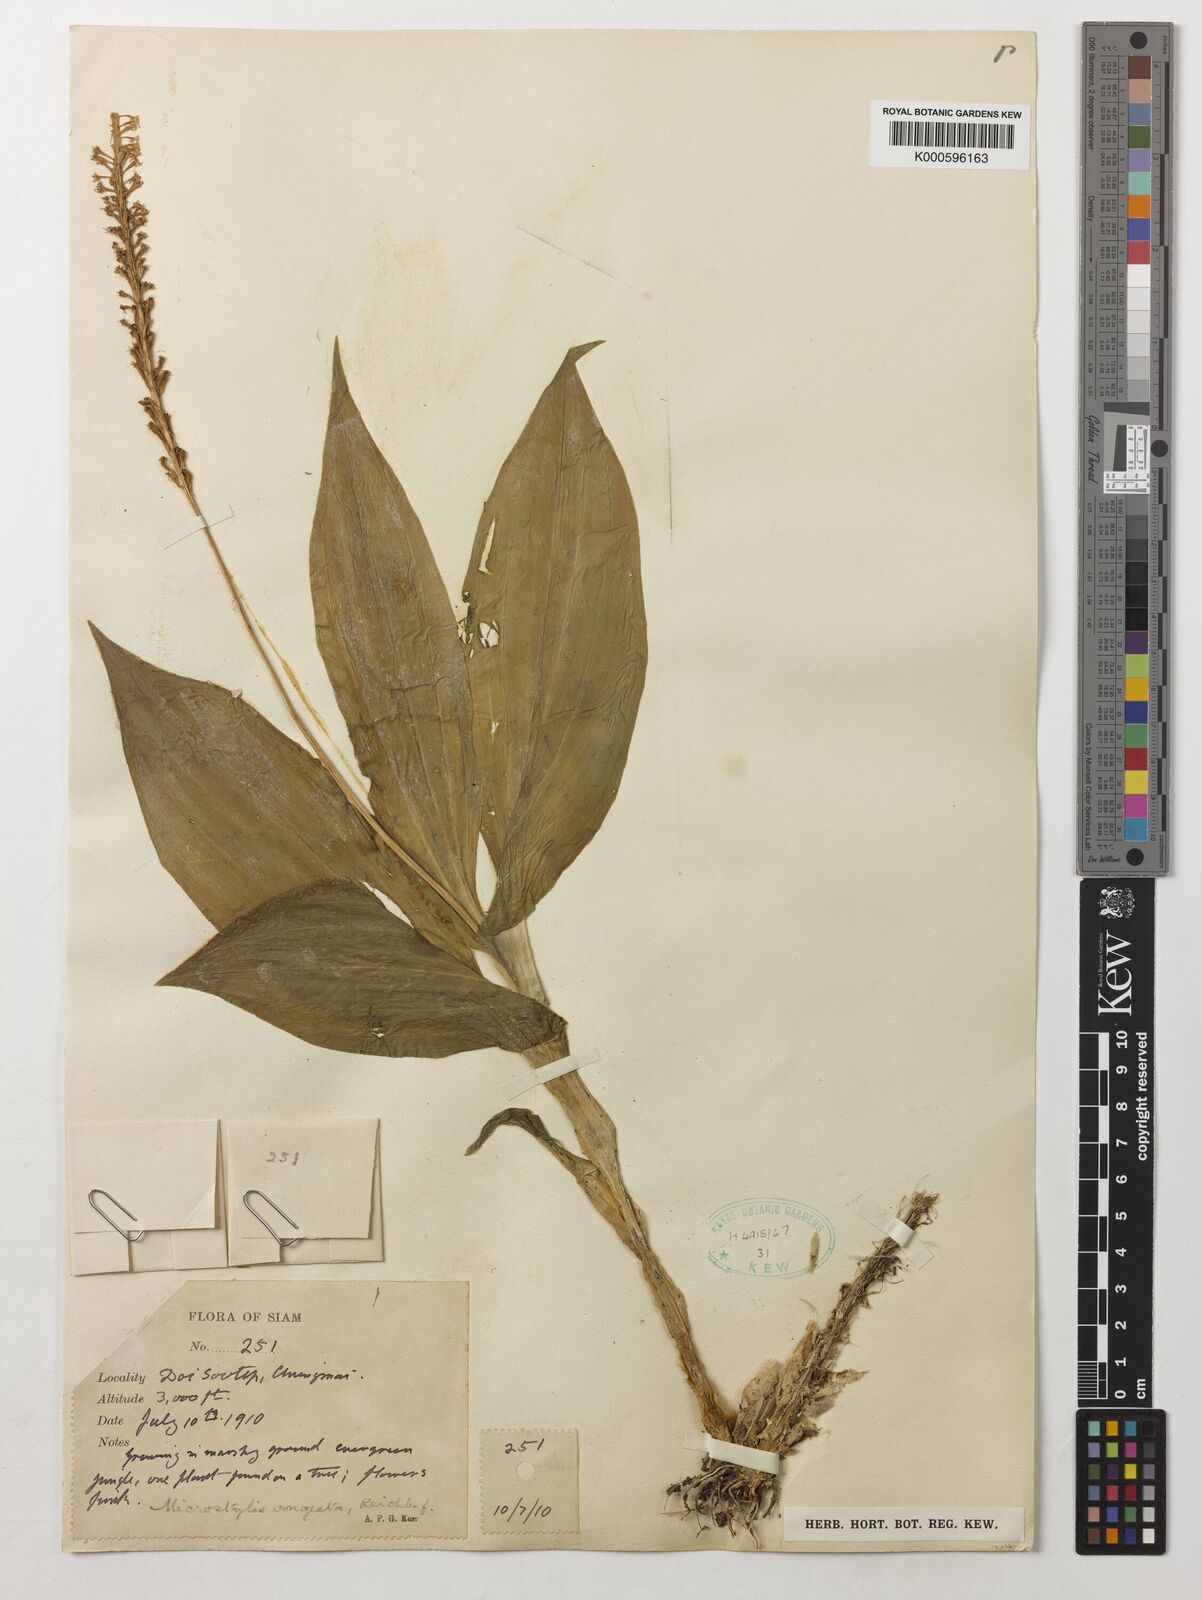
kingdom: Plantae
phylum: Tracheophyta
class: Liliopsida
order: Asparagales
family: Orchidaceae
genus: Dienia
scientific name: Dienia ophrydis
